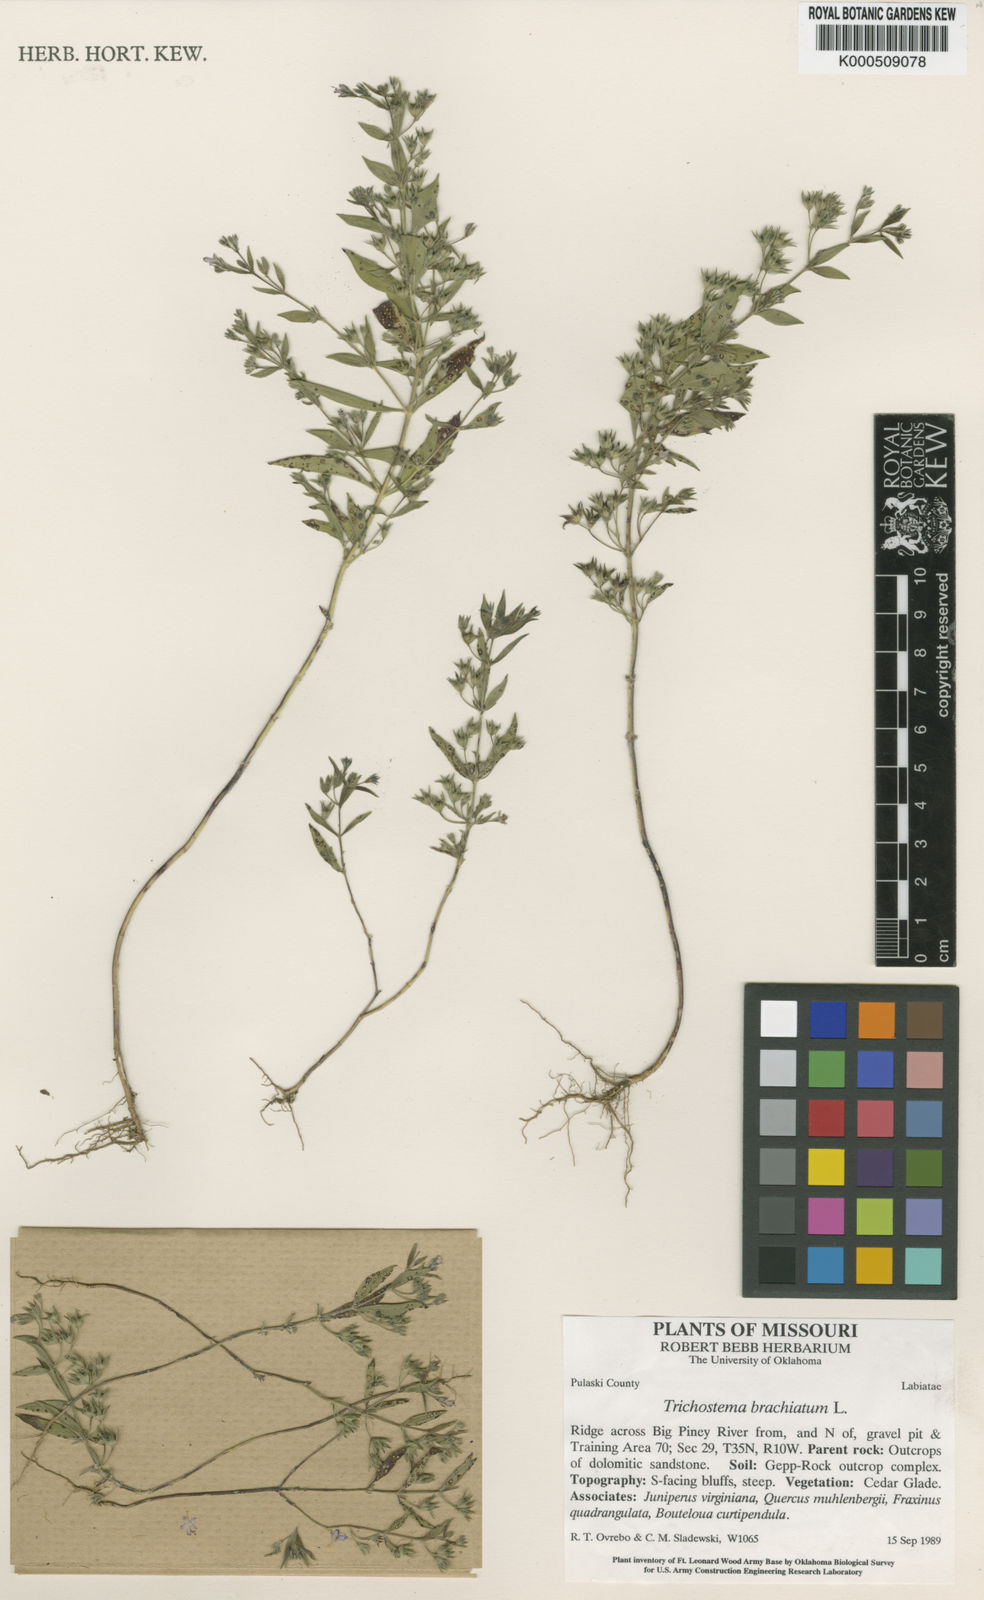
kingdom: Plantae
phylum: Tracheophyta
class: Magnoliopsida
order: Lamiales
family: Lamiaceae
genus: Trichostema
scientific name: Trichostema brachiatum
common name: False pennyroyal
